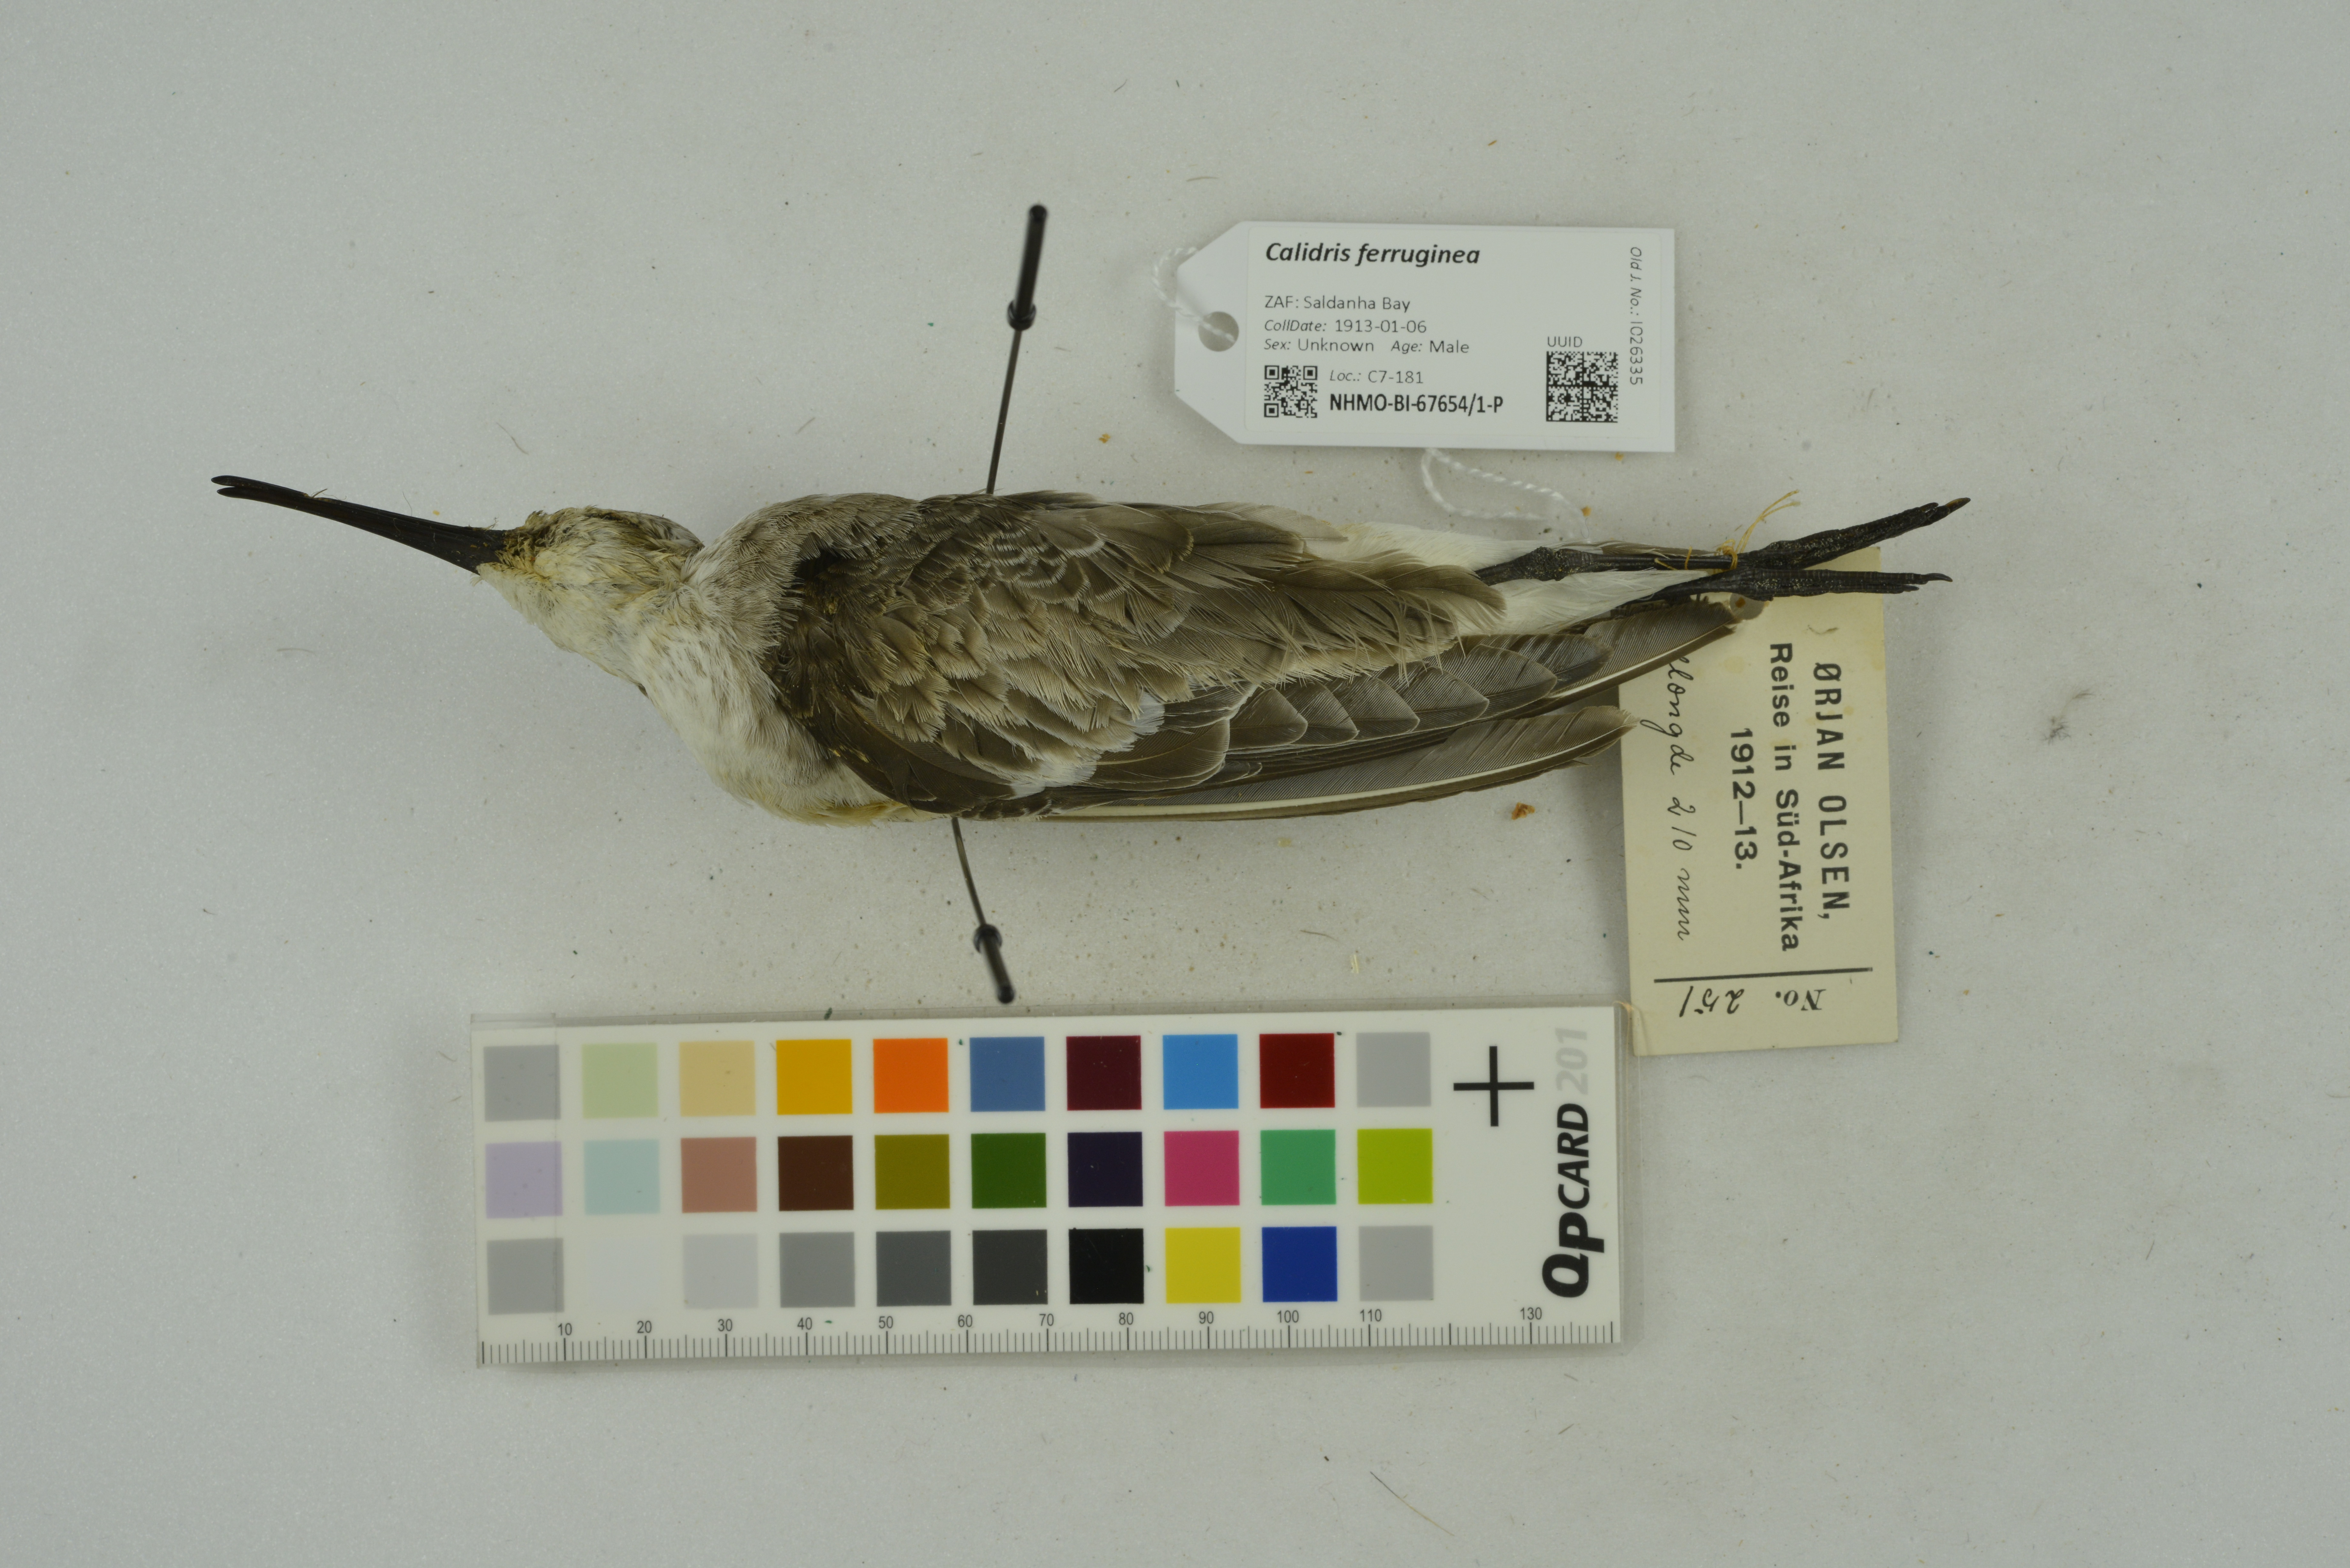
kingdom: Animalia
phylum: Chordata
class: Aves
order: Charadriiformes
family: Scolopacidae
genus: Calidris
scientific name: Calidris ferruginea
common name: Curlew sandpiper
